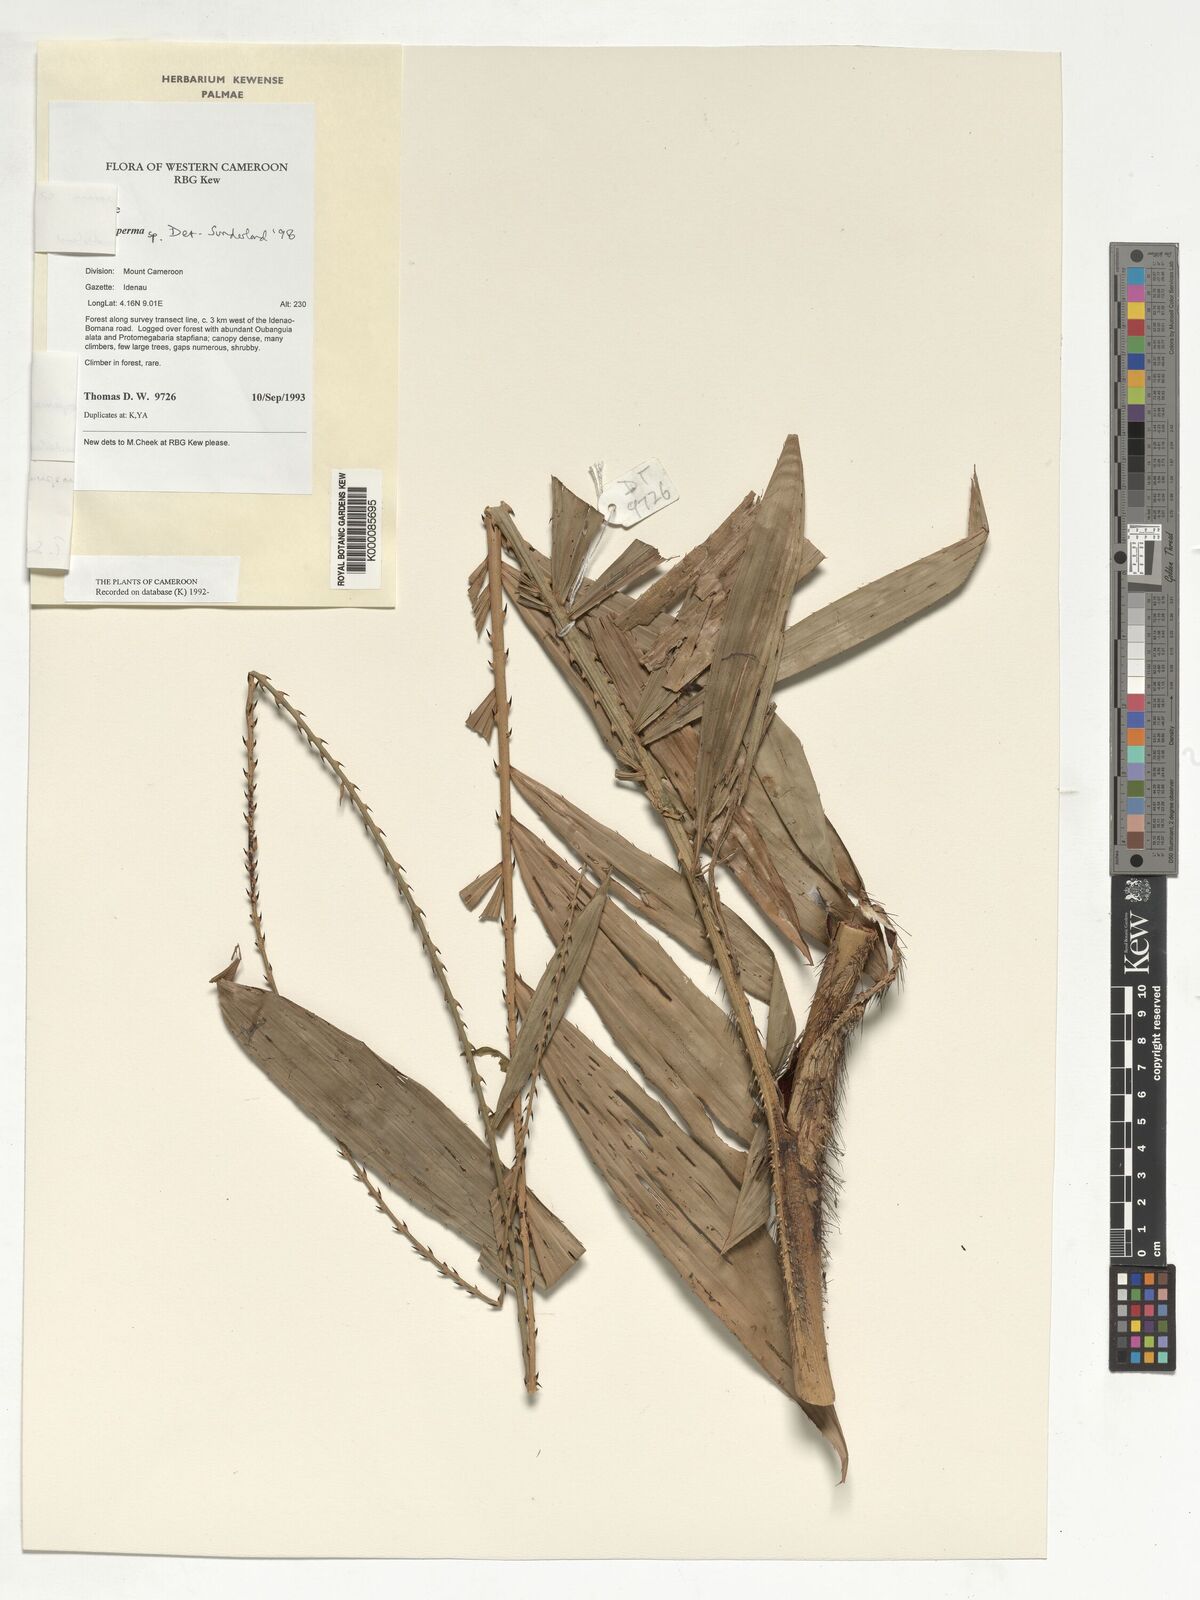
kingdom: Plantae
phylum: Tracheophyta
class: Liliopsida
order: Arecales
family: Arecaceae
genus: Laccosperma
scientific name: Laccosperma
